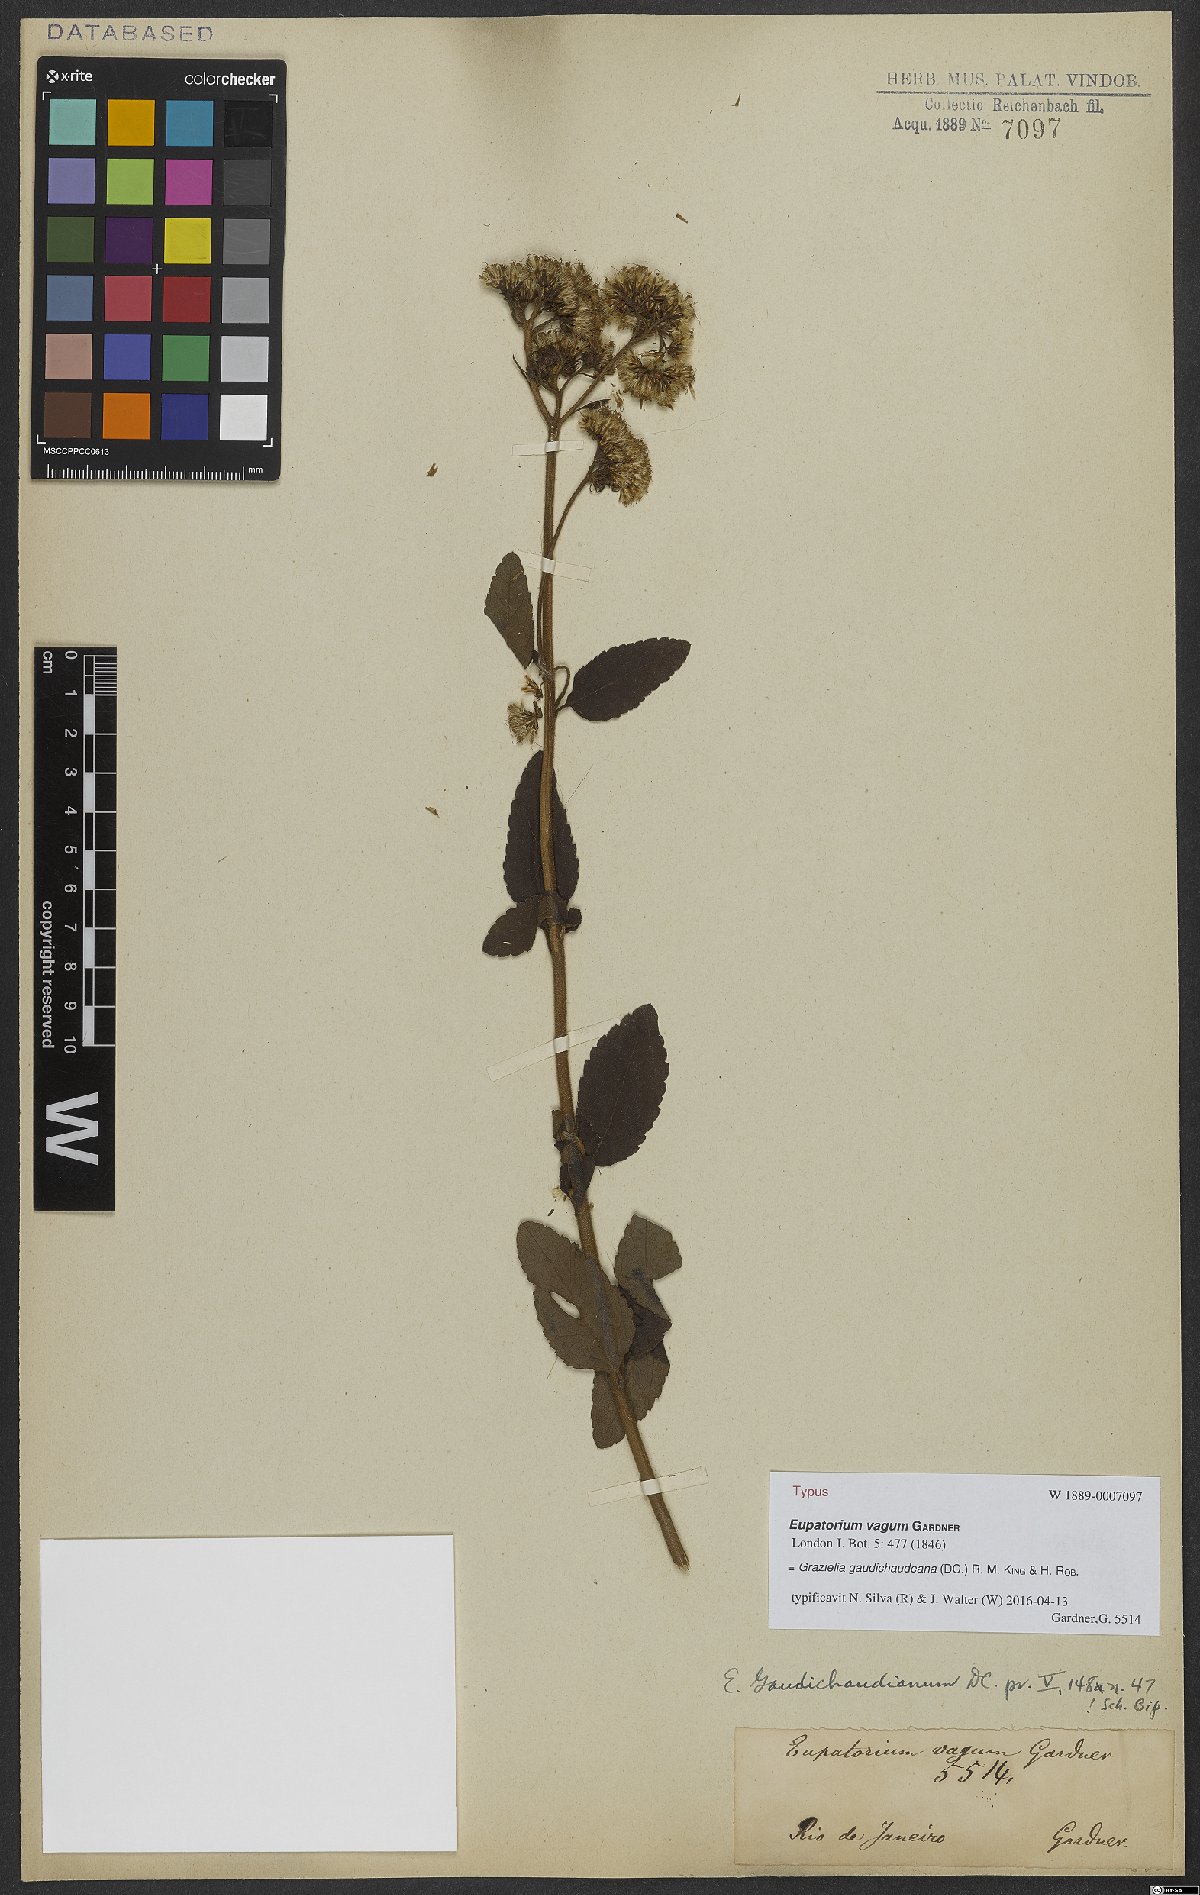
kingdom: Plantae
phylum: Tracheophyta
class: Magnoliopsida
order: Asterales
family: Asteraceae
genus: Grazielia
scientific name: Grazielia gaudichaudeana
